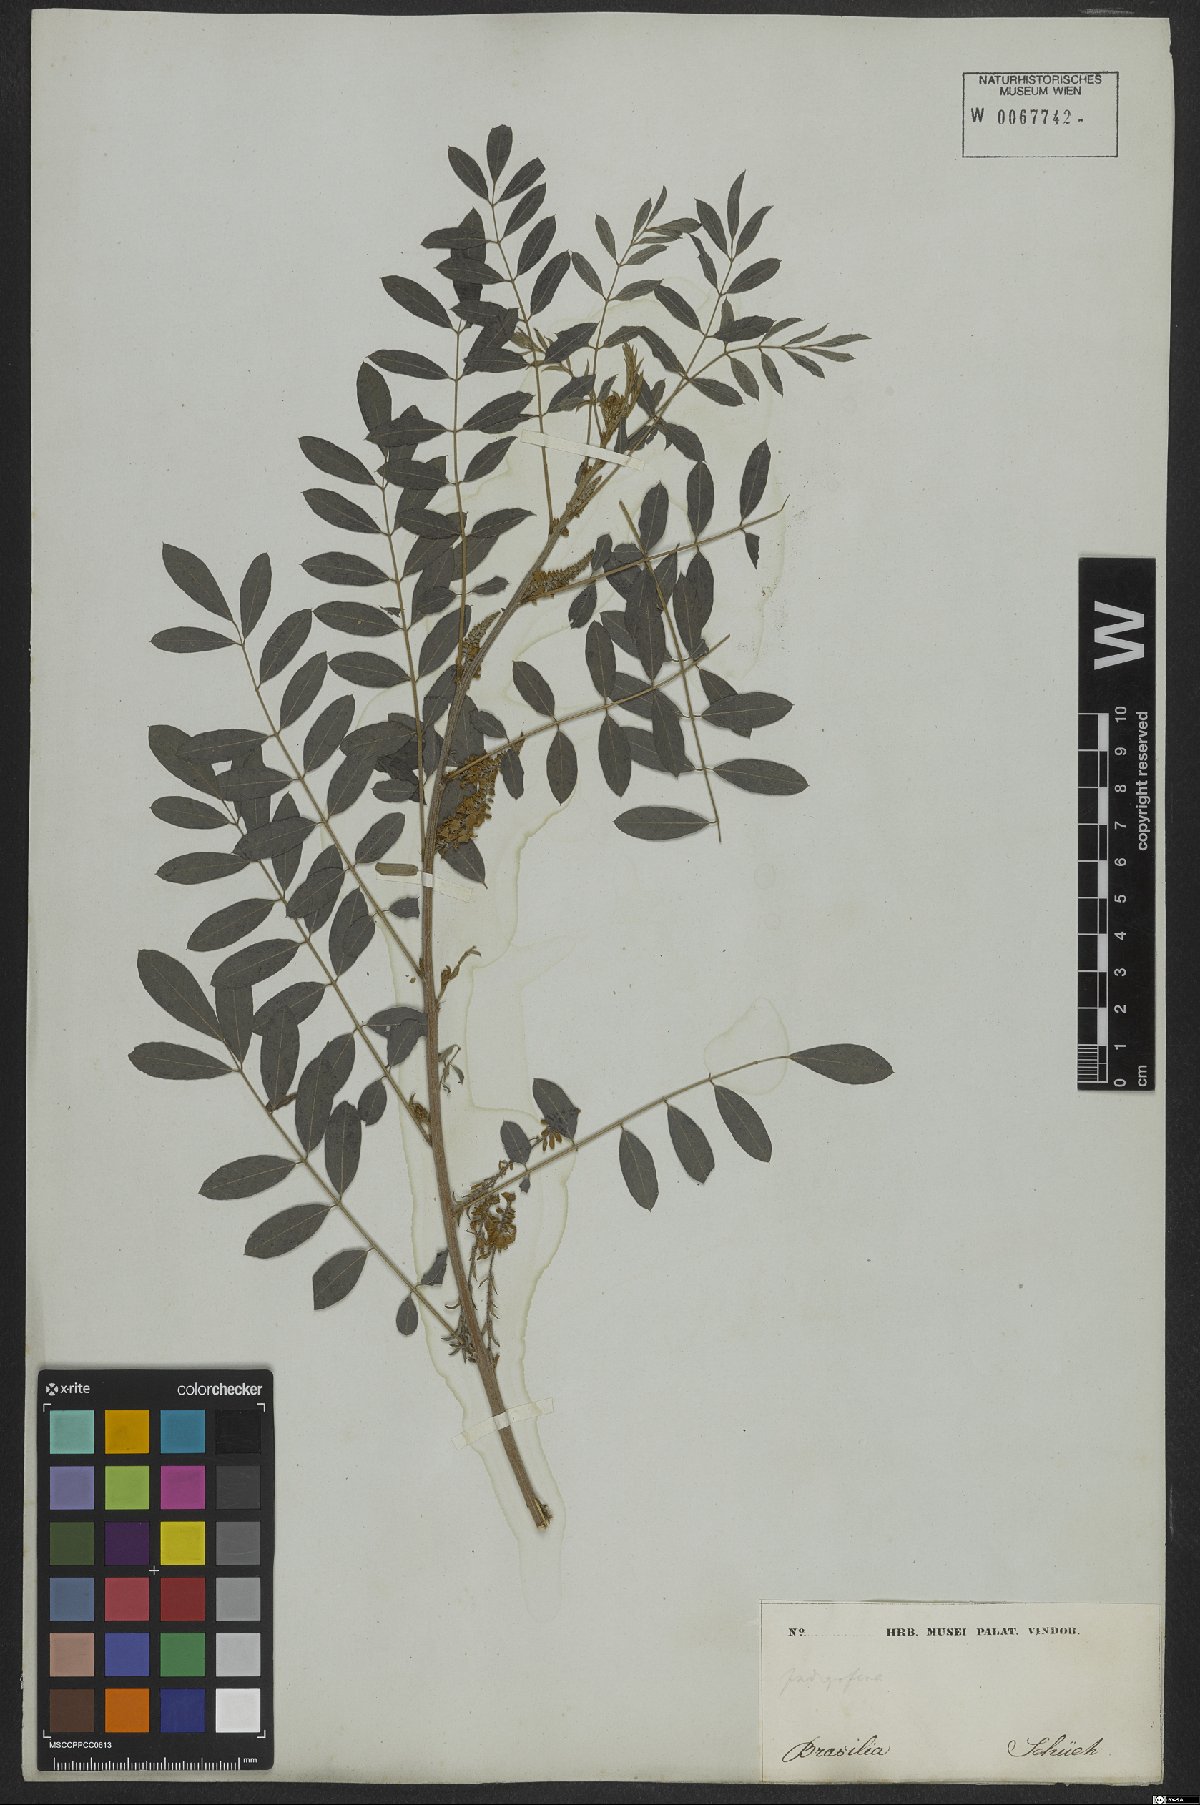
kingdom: Plantae
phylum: Tracheophyta
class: Magnoliopsida
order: Fabales
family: Fabaceae
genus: Indigofera
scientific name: Indigofera tinctoria
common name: True indigo
